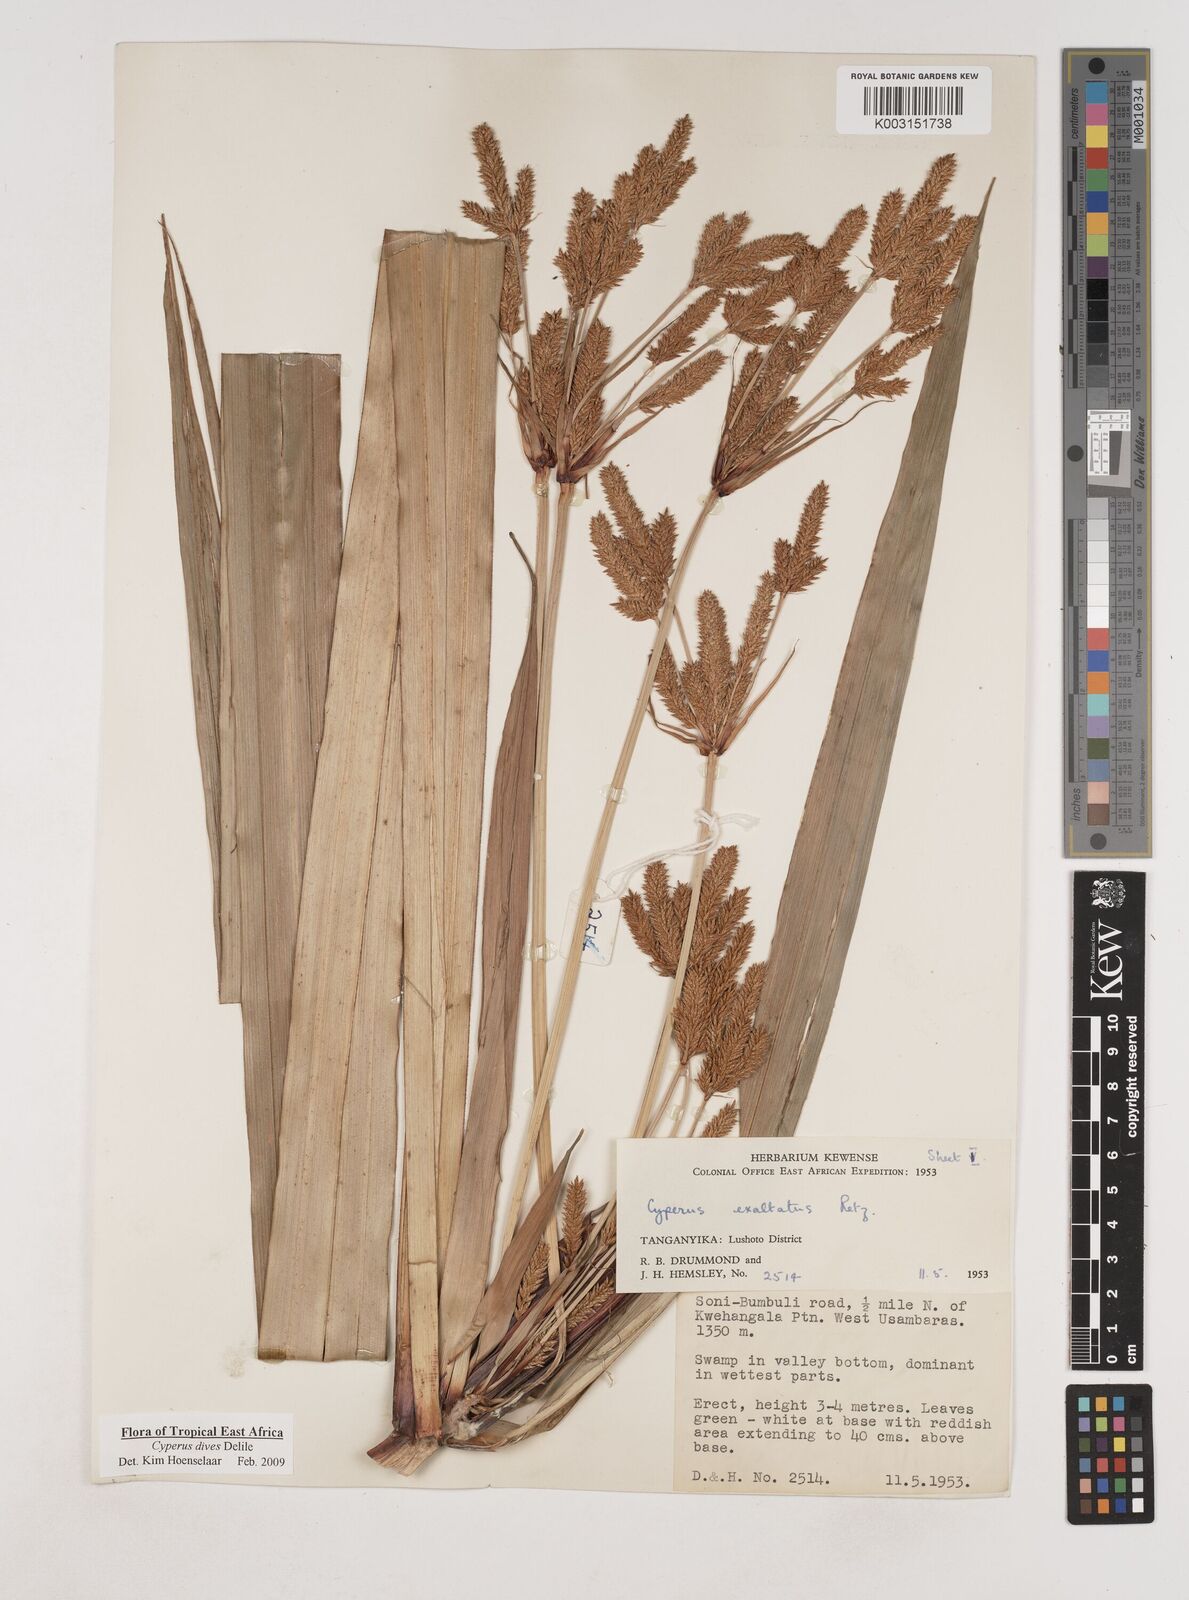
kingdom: Plantae
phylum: Tracheophyta
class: Liliopsida
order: Poales
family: Cyperaceae
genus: Cyperus
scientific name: Cyperus dives
